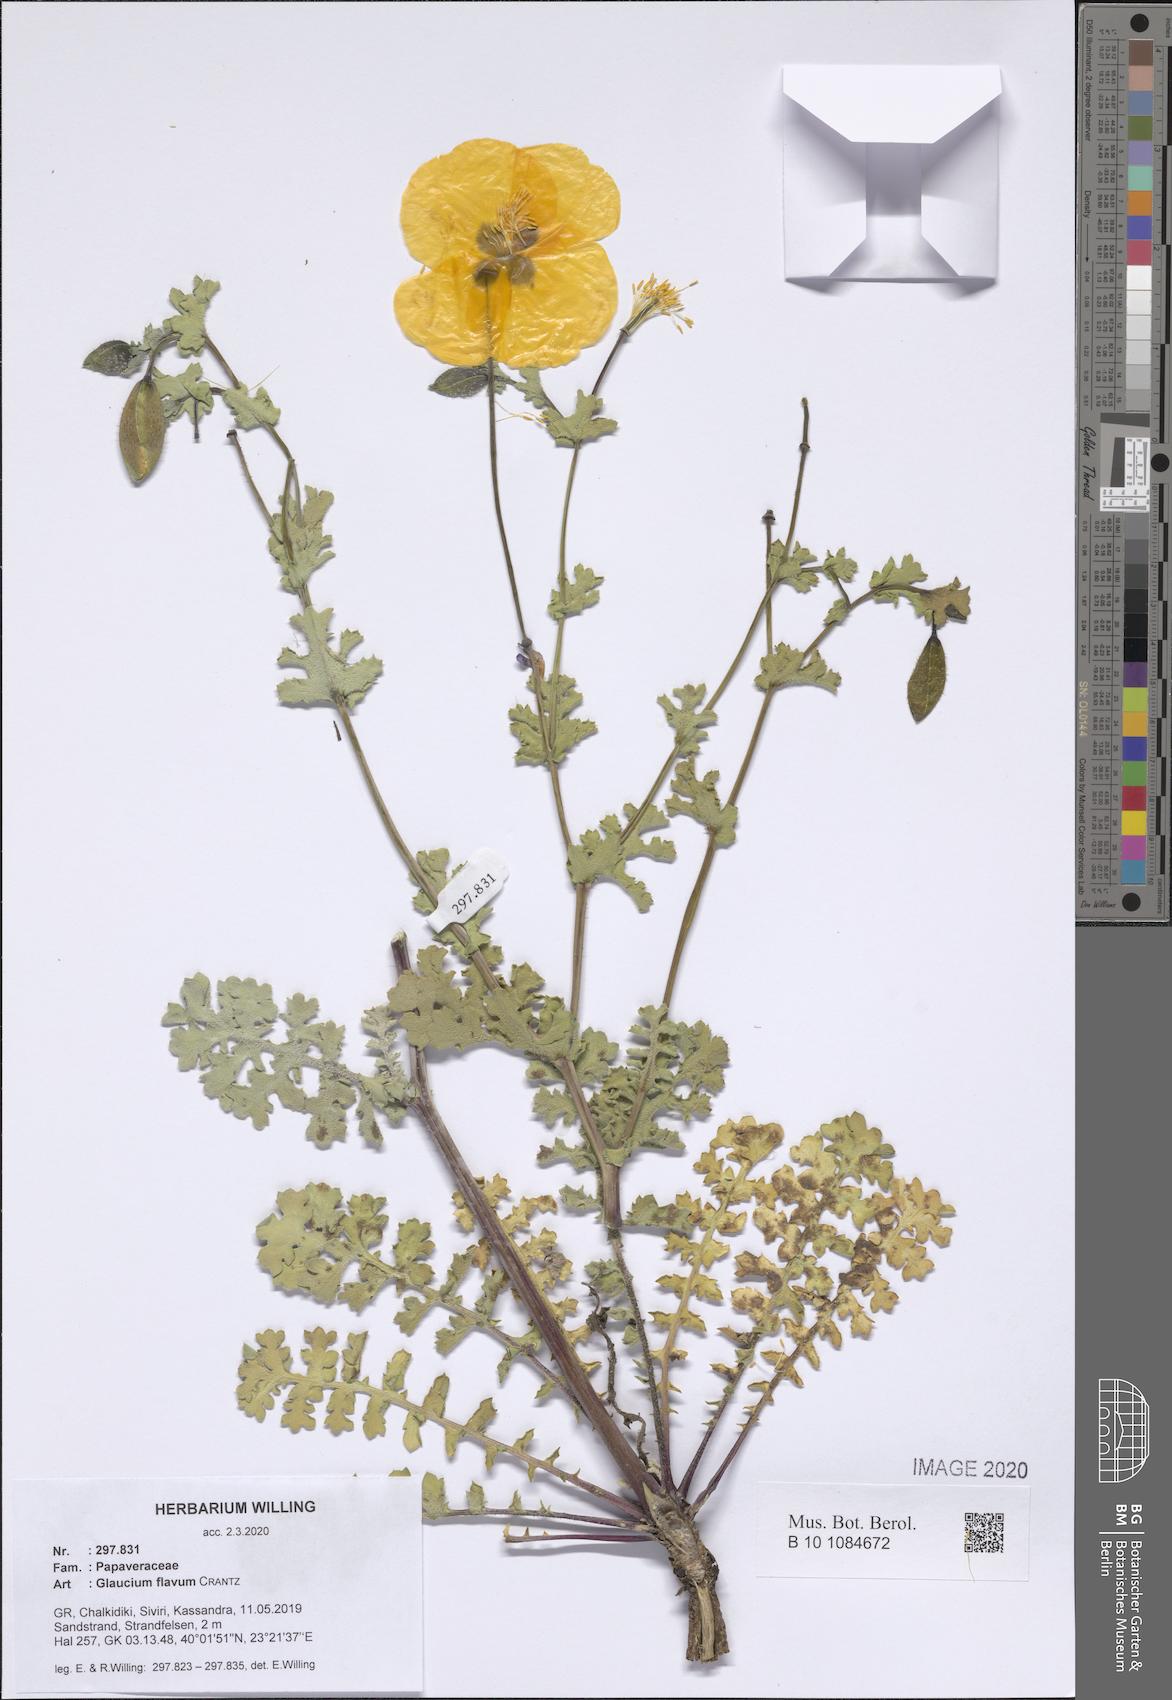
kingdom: Plantae
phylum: Tracheophyta
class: Magnoliopsida
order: Ranunculales
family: Papaveraceae
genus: Glaucium
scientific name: Glaucium flavum
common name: Yellow horned-poppy
